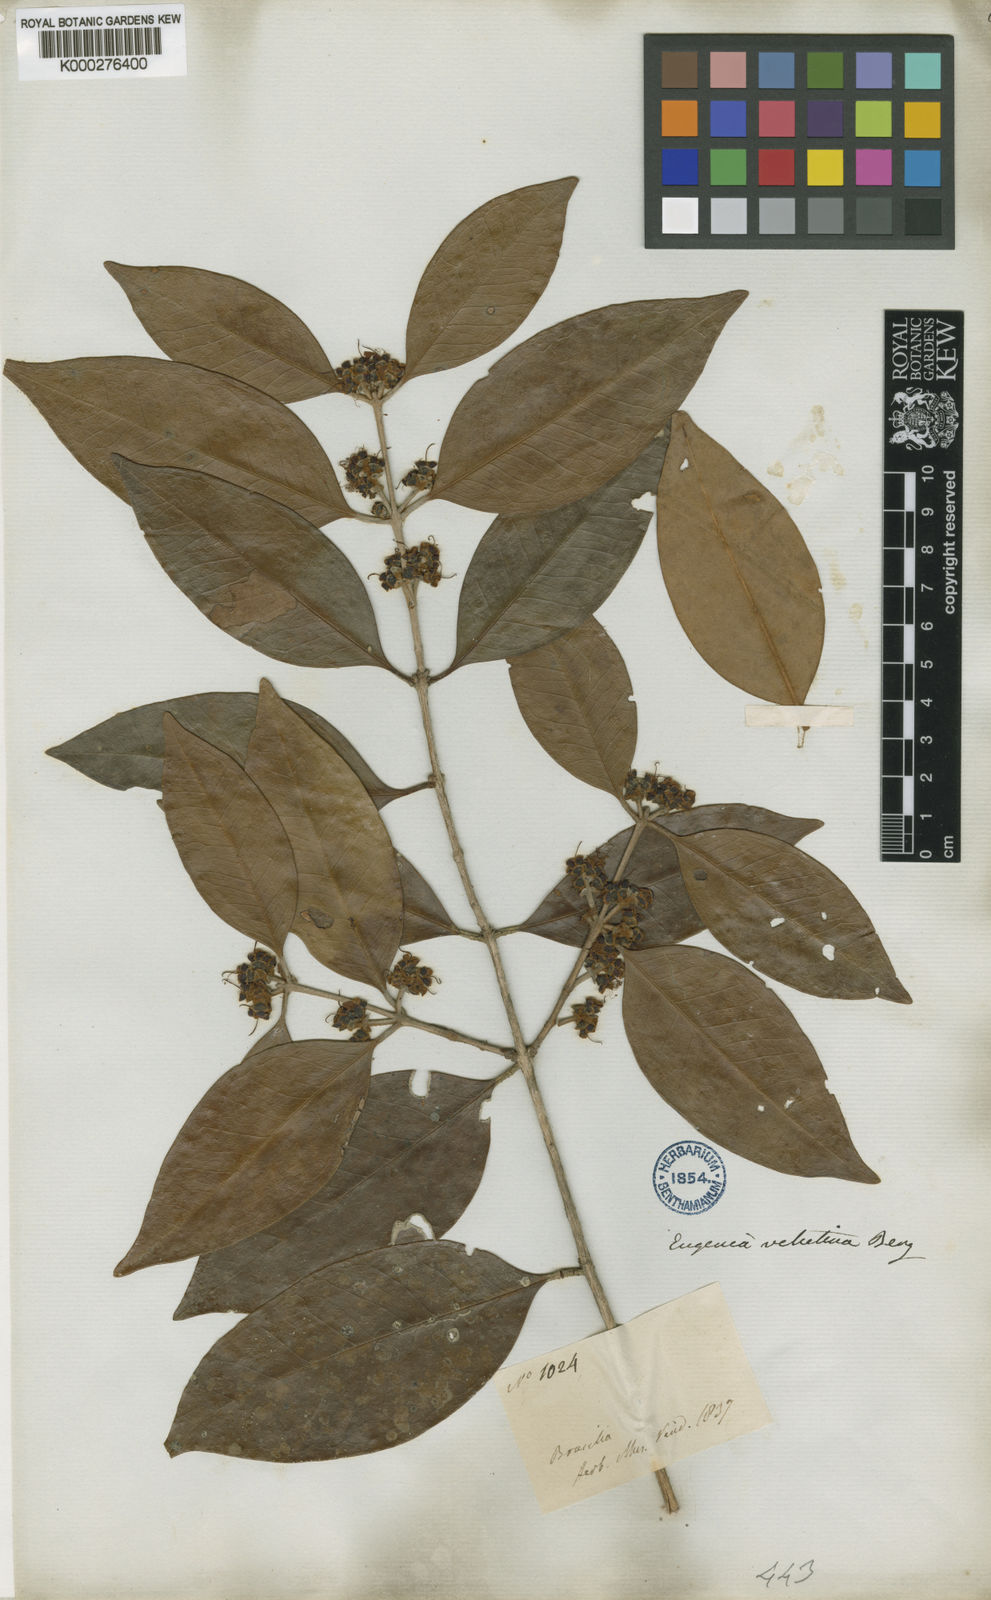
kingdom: Plantae
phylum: Tracheophyta
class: Magnoliopsida
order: Myrtales
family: Myrtaceae
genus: Eugenia
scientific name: Eugenia macrosperma
